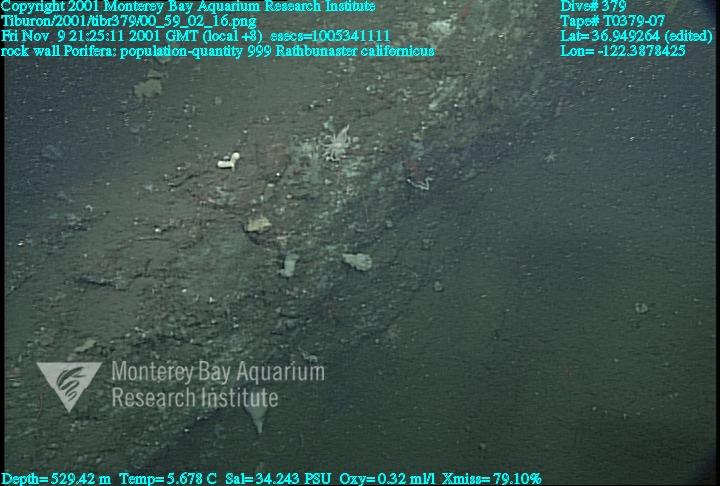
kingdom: Animalia
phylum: Porifera
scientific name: Porifera
